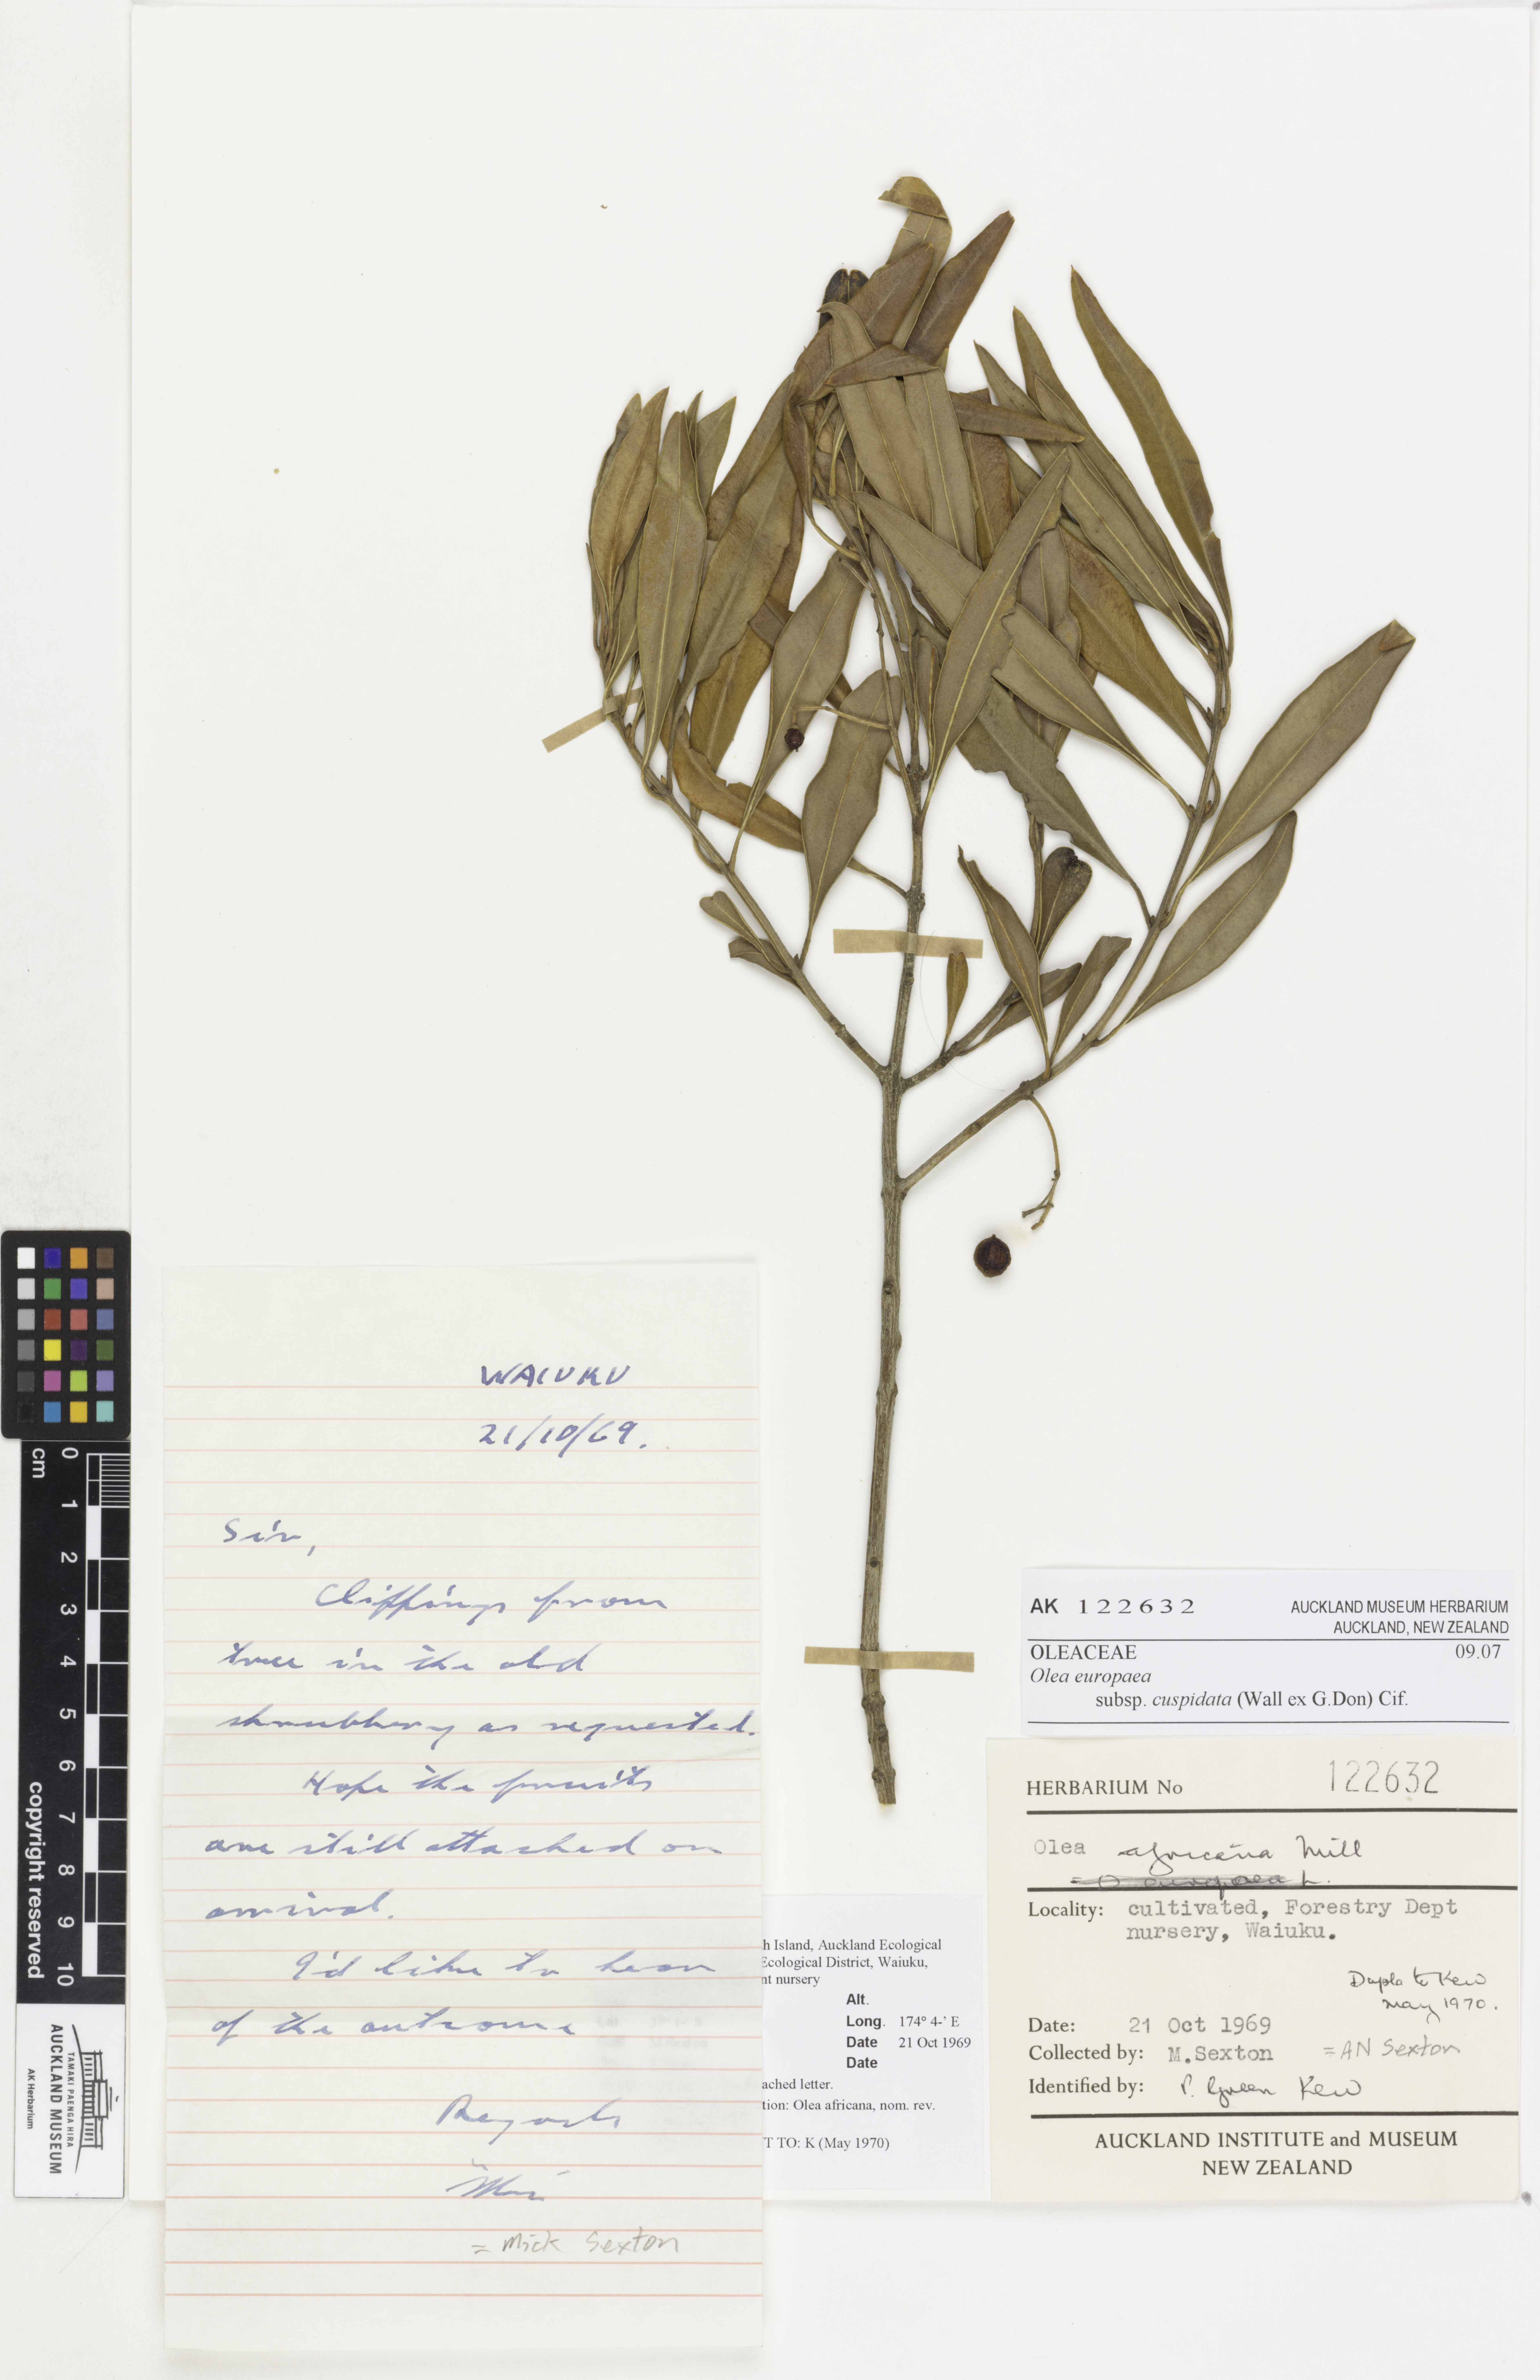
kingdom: Plantae
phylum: Tracheophyta
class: Magnoliopsida
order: Lamiales
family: Oleaceae
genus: Olea
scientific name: Olea europaea
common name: Olive
